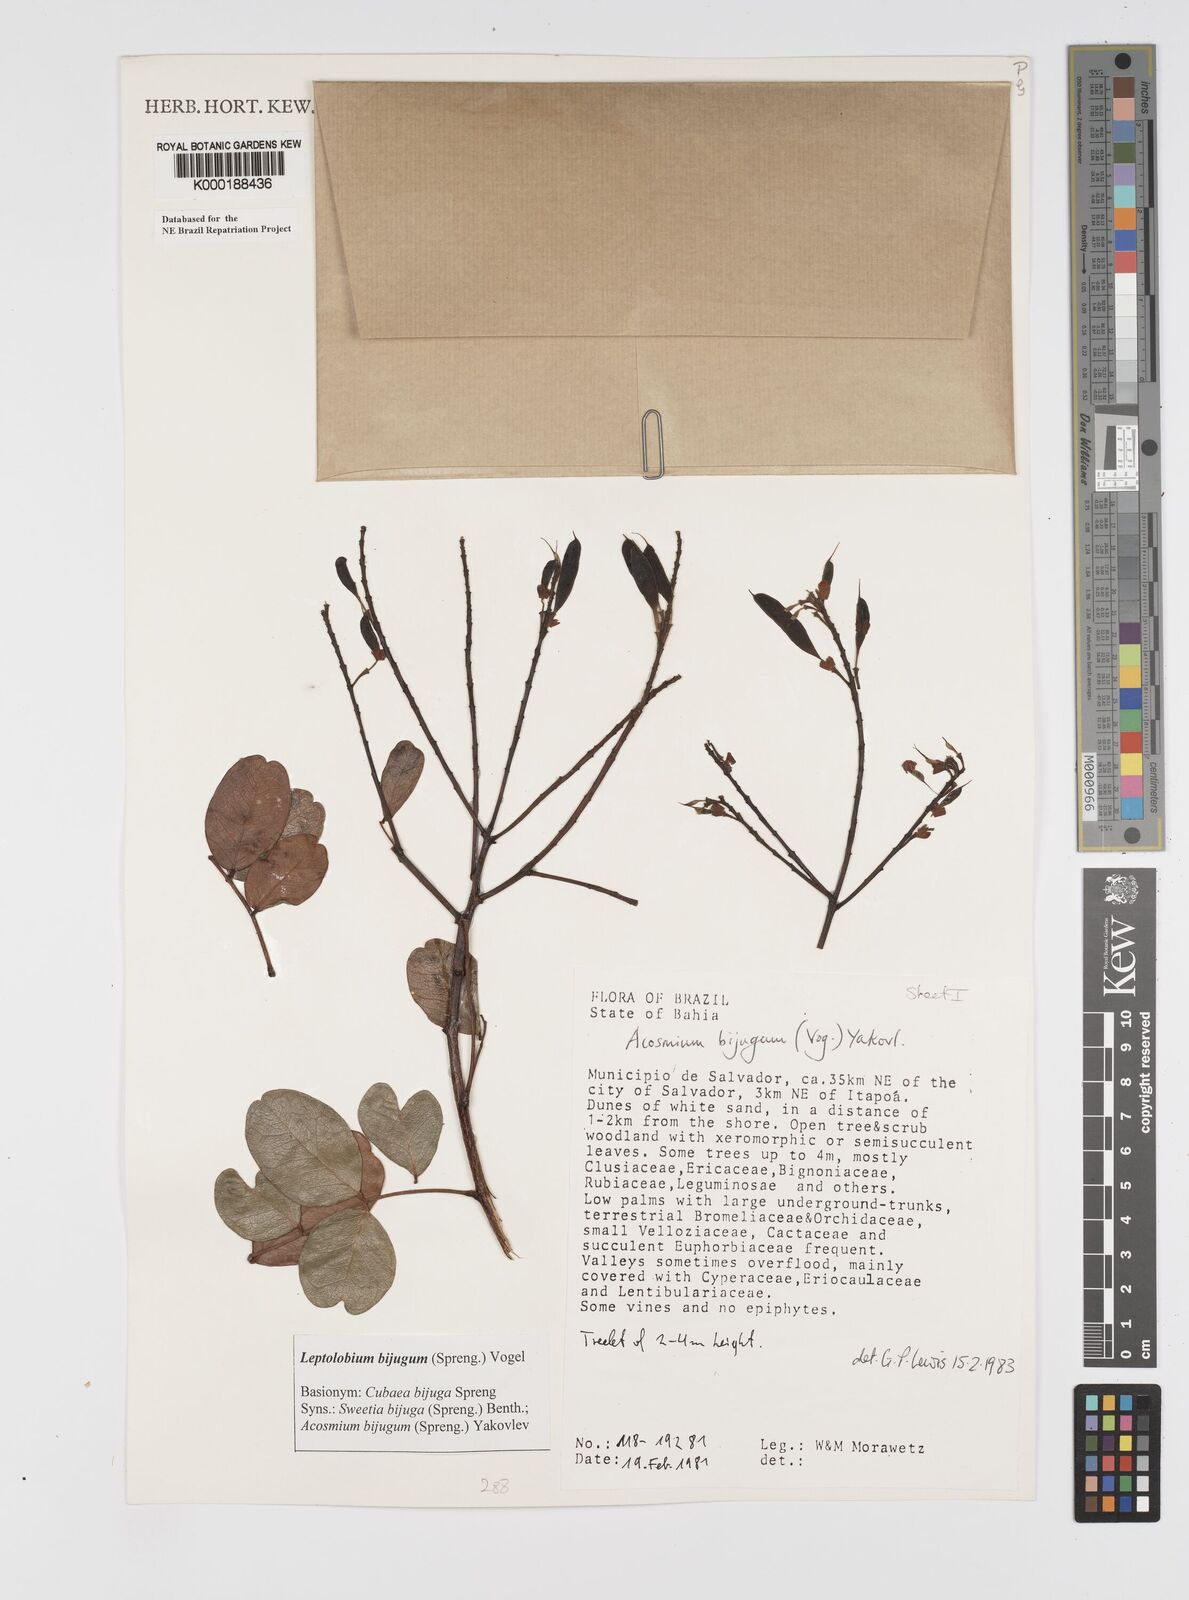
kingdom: Plantae
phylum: Tracheophyta
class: Magnoliopsida
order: Fabales
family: Fabaceae
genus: Leptolobium
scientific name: Leptolobium bijugum
